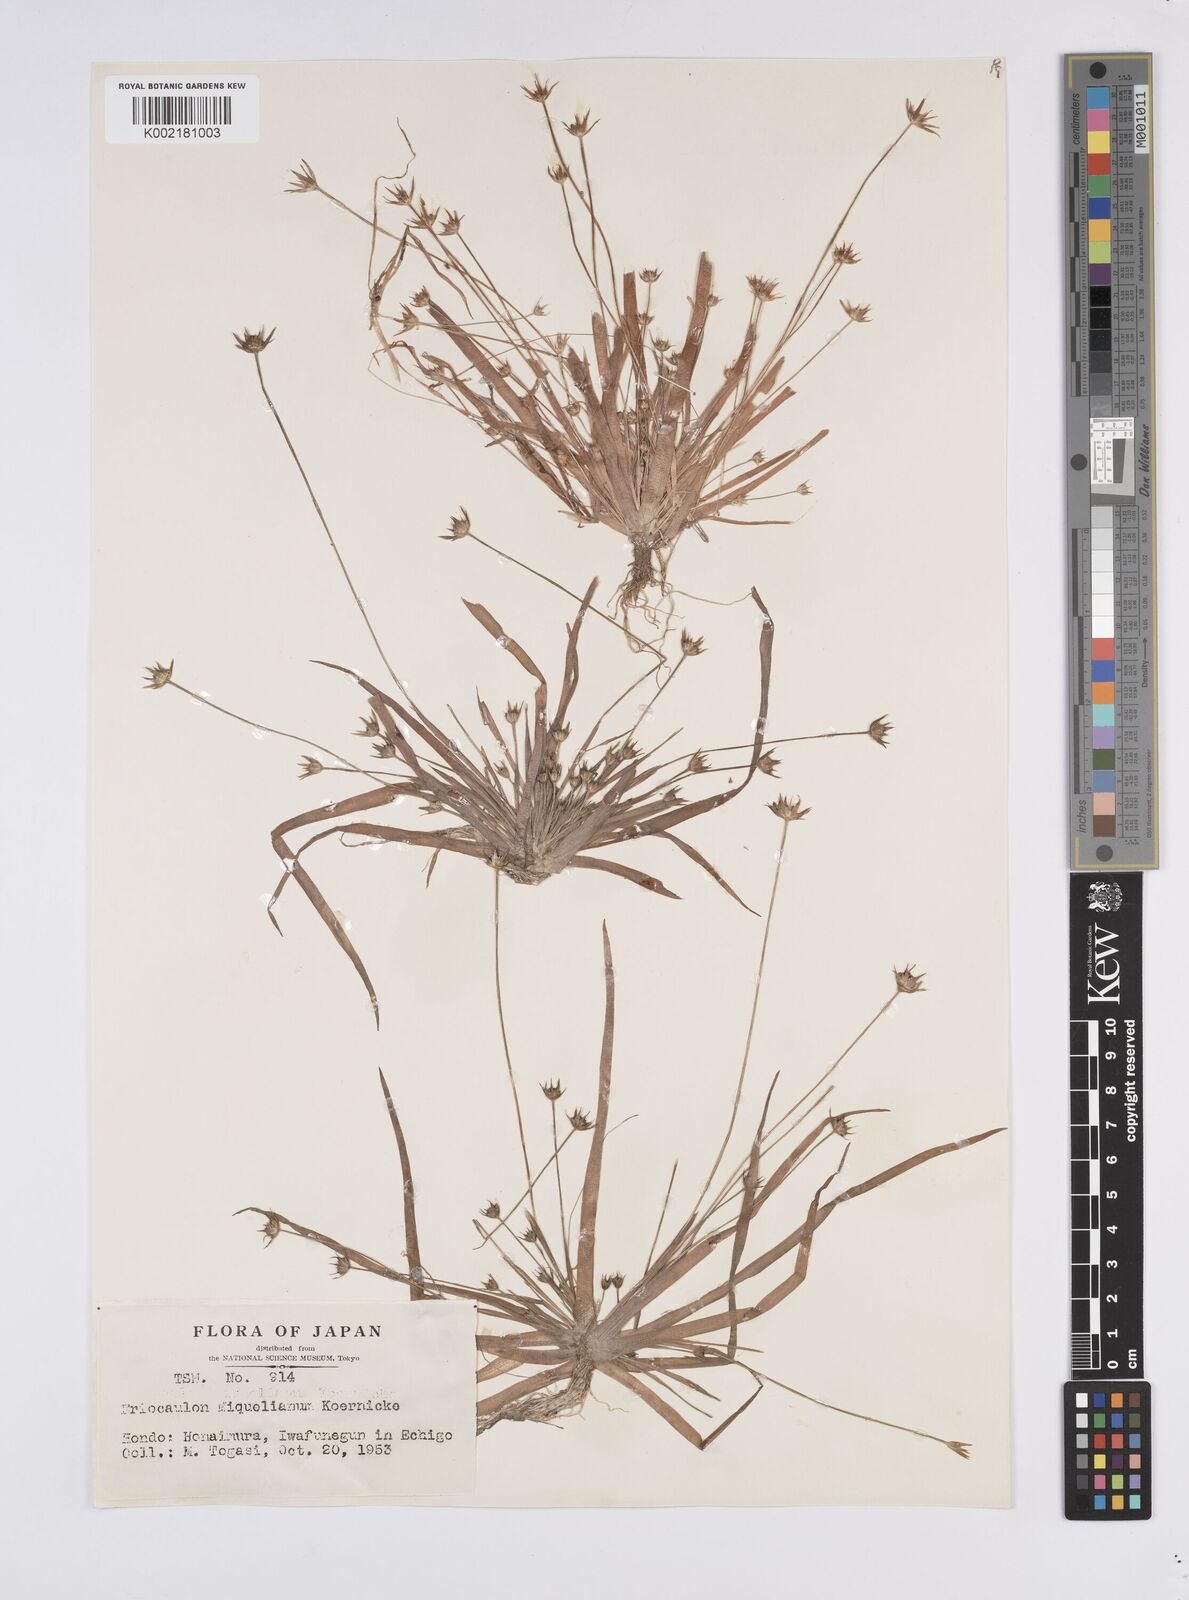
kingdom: Plantae
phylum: Tracheophyta
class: Liliopsida
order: Poales
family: Eriocaulaceae
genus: Eriocaulon
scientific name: Eriocaulon miquelianum
